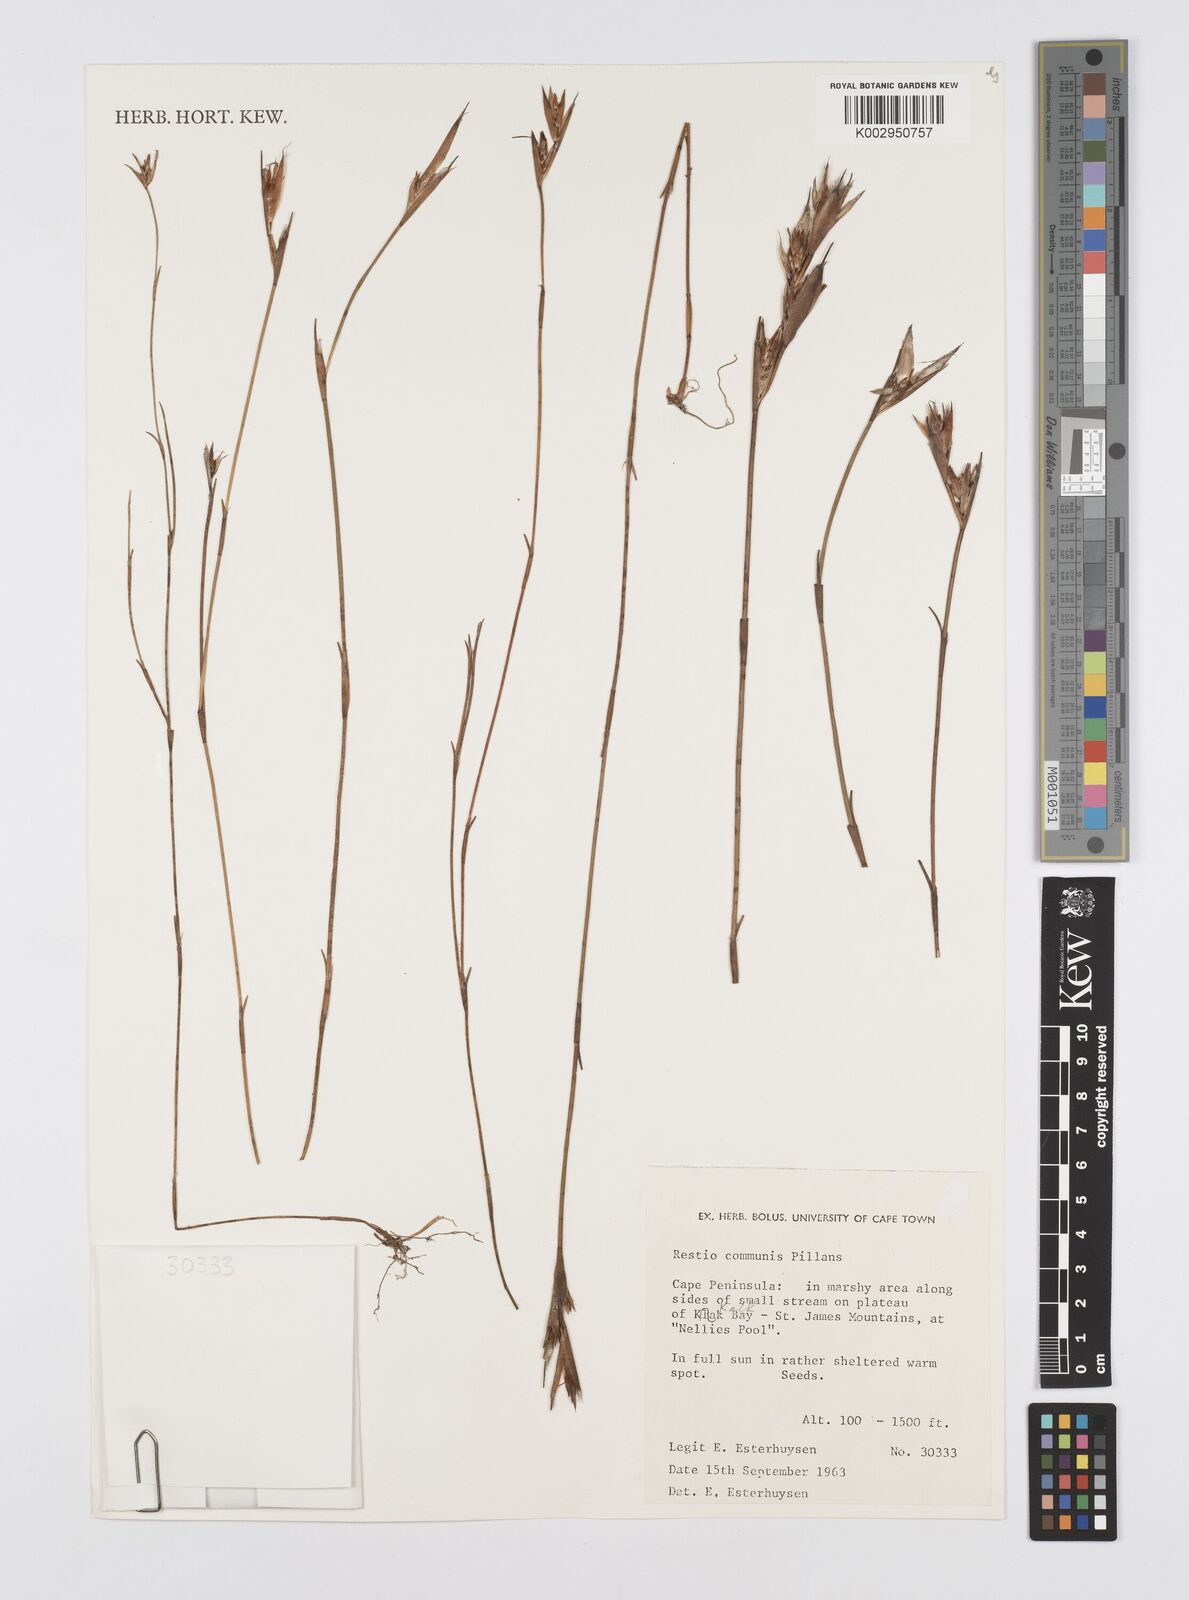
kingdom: Plantae
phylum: Tracheophyta
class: Liliopsida
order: Poales
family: Restionaceae
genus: Restio
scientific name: Restio communis
